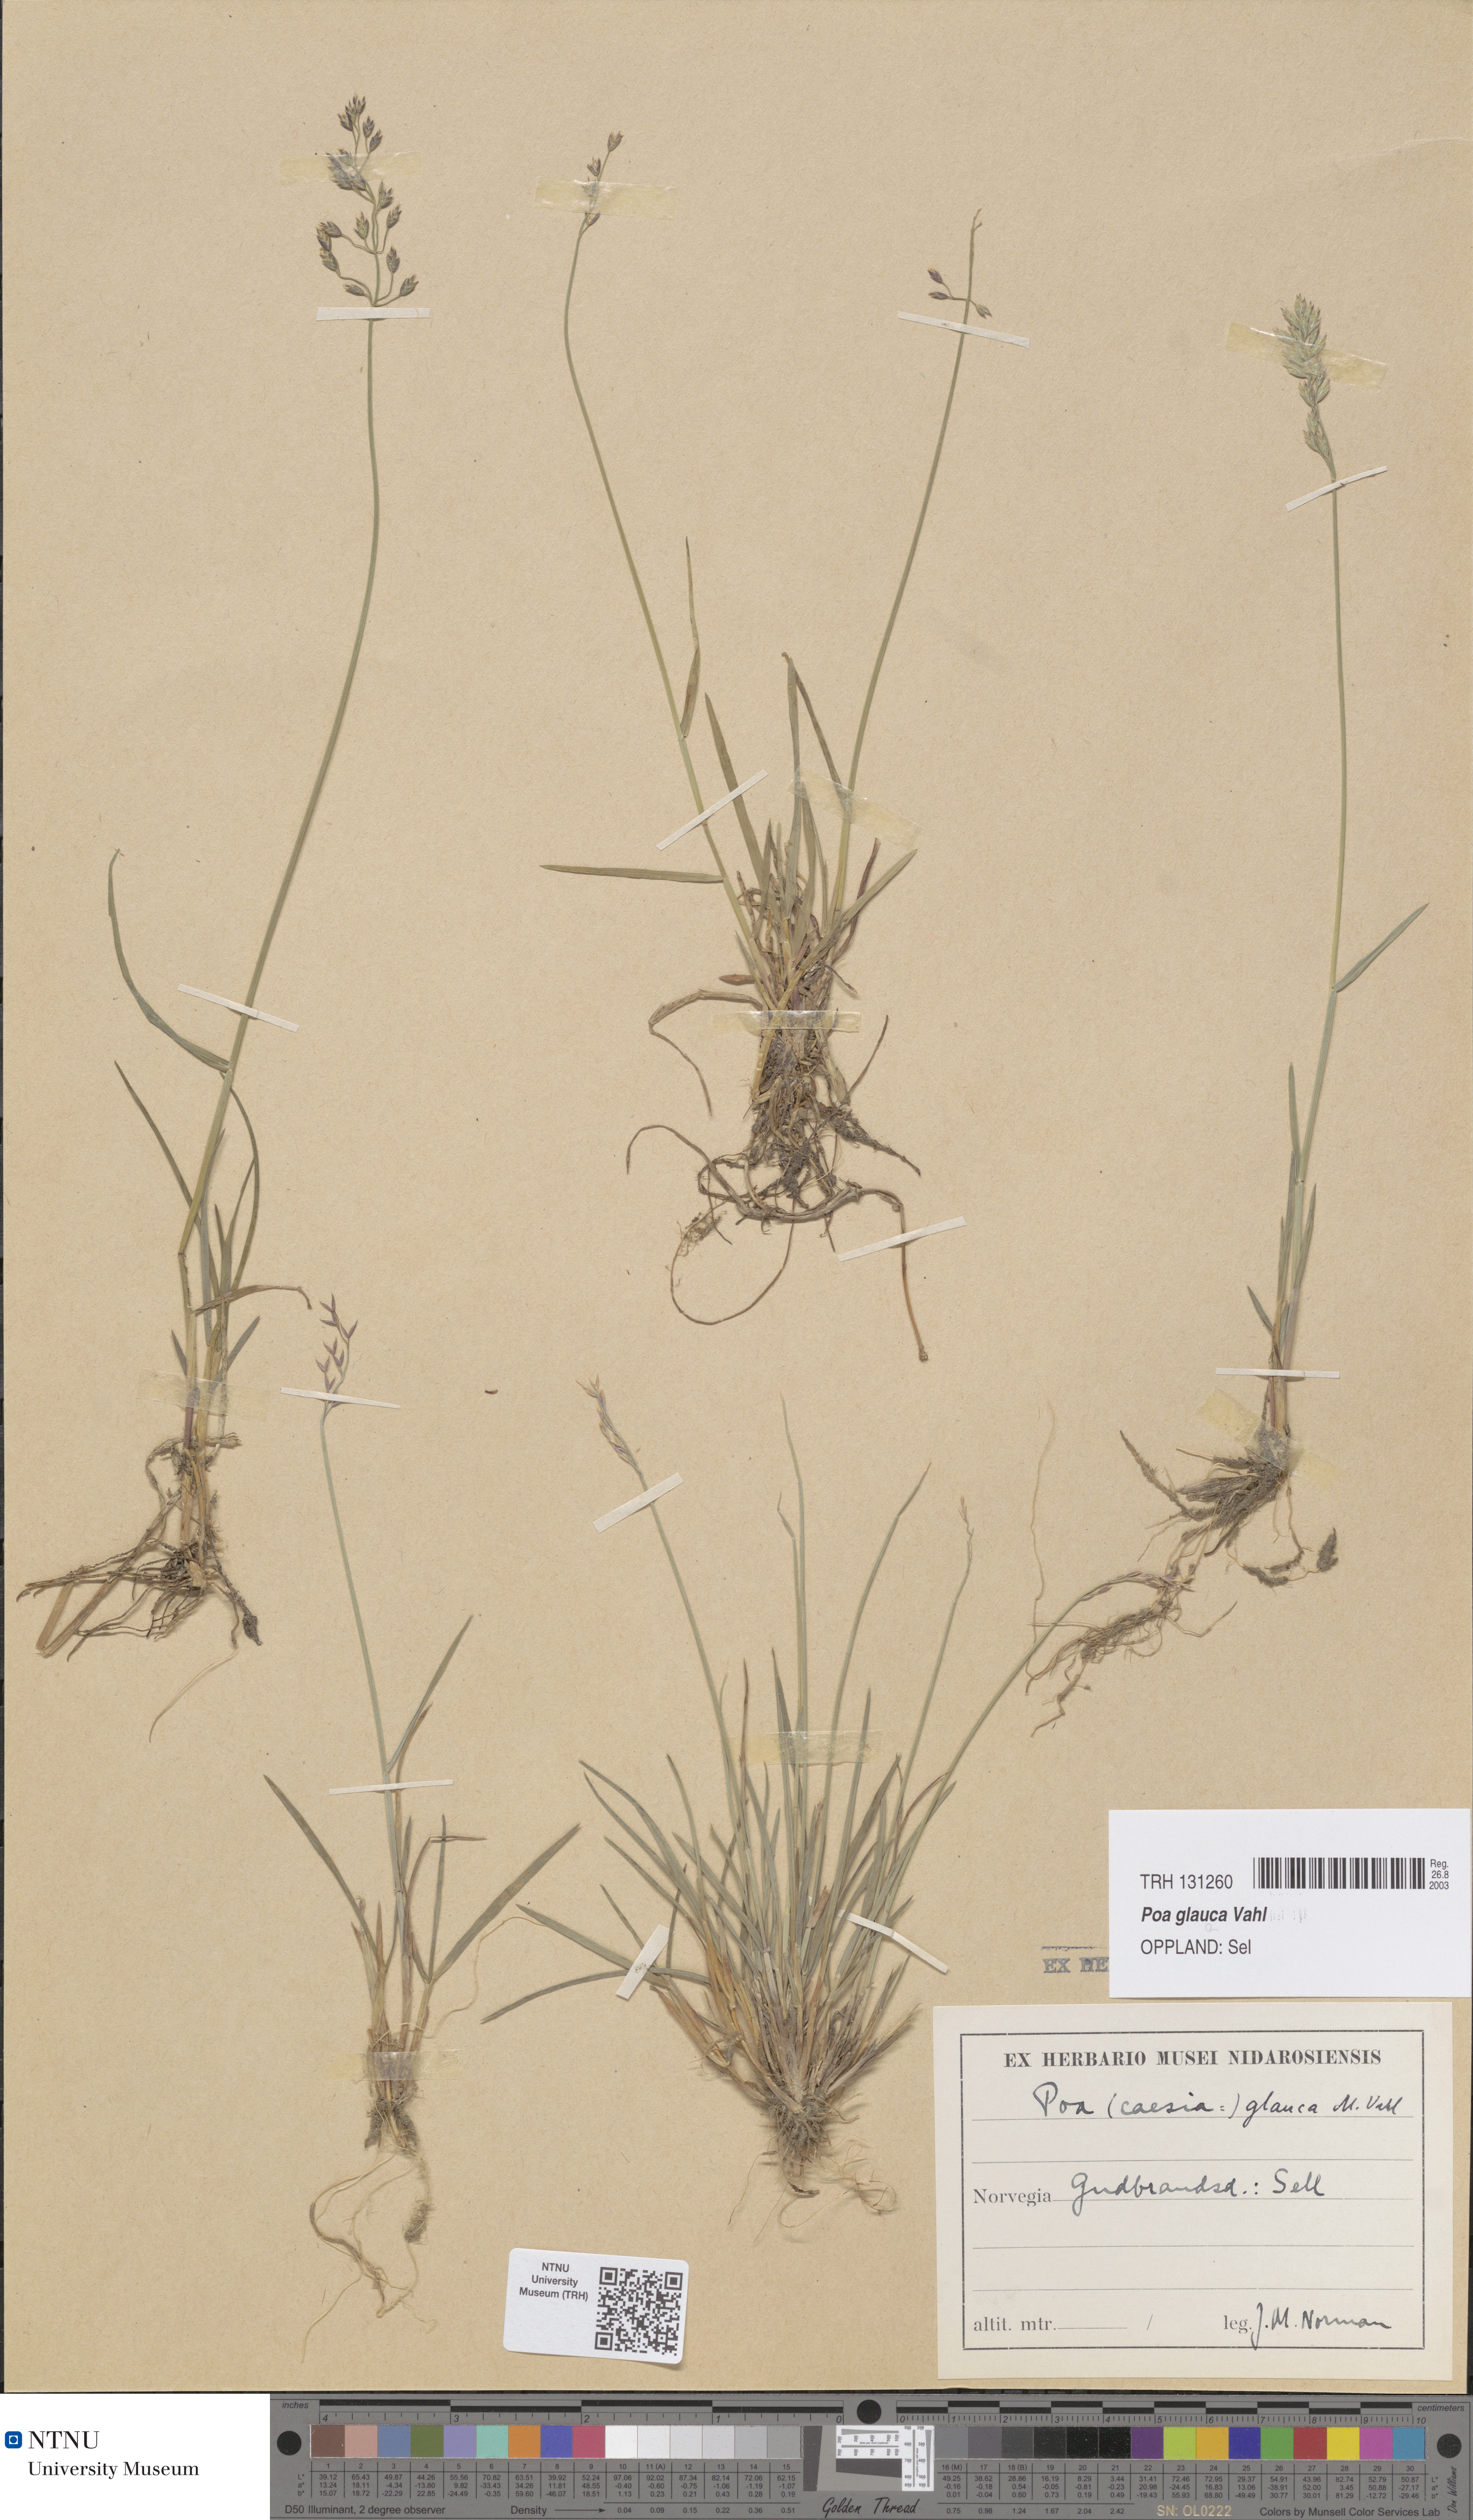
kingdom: Plantae
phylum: Tracheophyta
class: Liliopsida
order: Poales
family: Poaceae
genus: Poa
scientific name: Poa glauca
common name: Glaucous bluegrass
